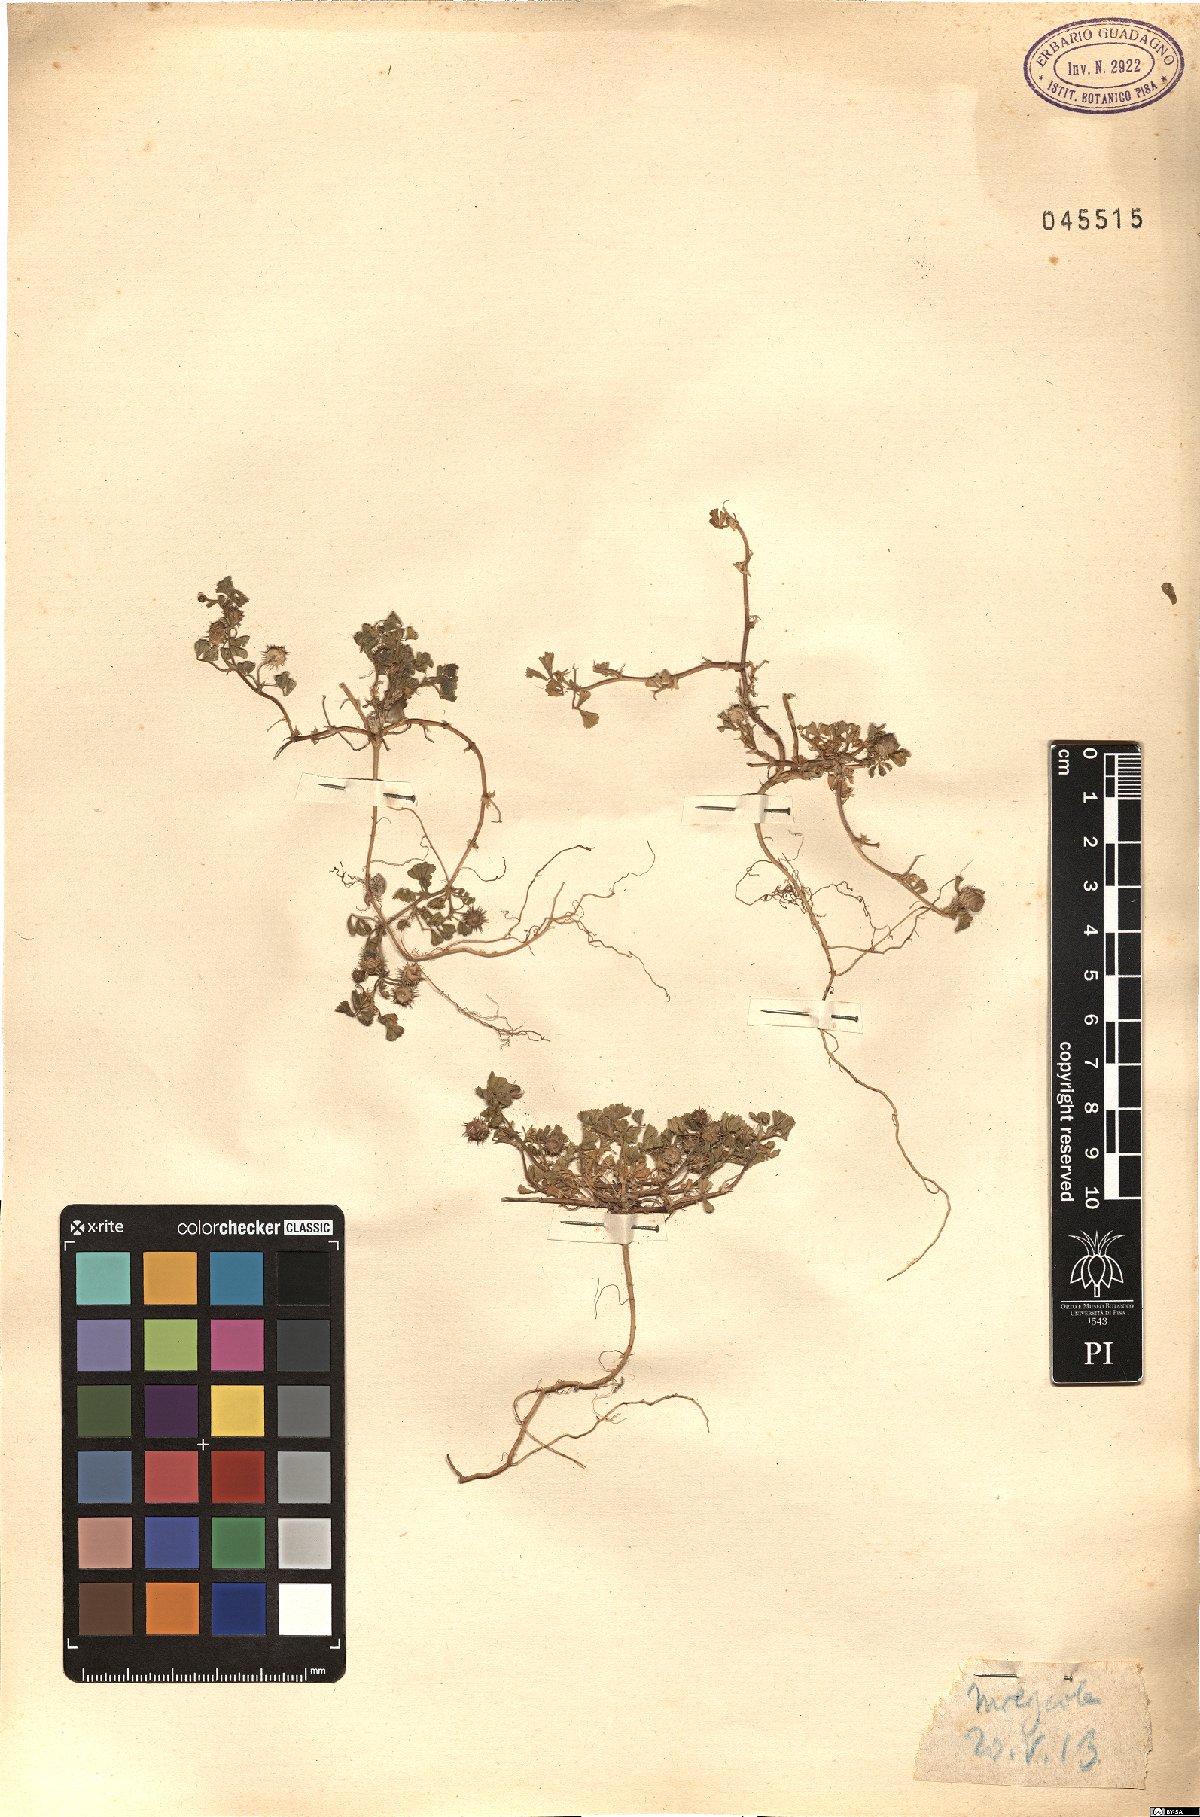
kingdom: Plantae
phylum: Tracheophyta
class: Magnoliopsida
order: Fabales
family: Fabaceae
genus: Medicago
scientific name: Medicago
